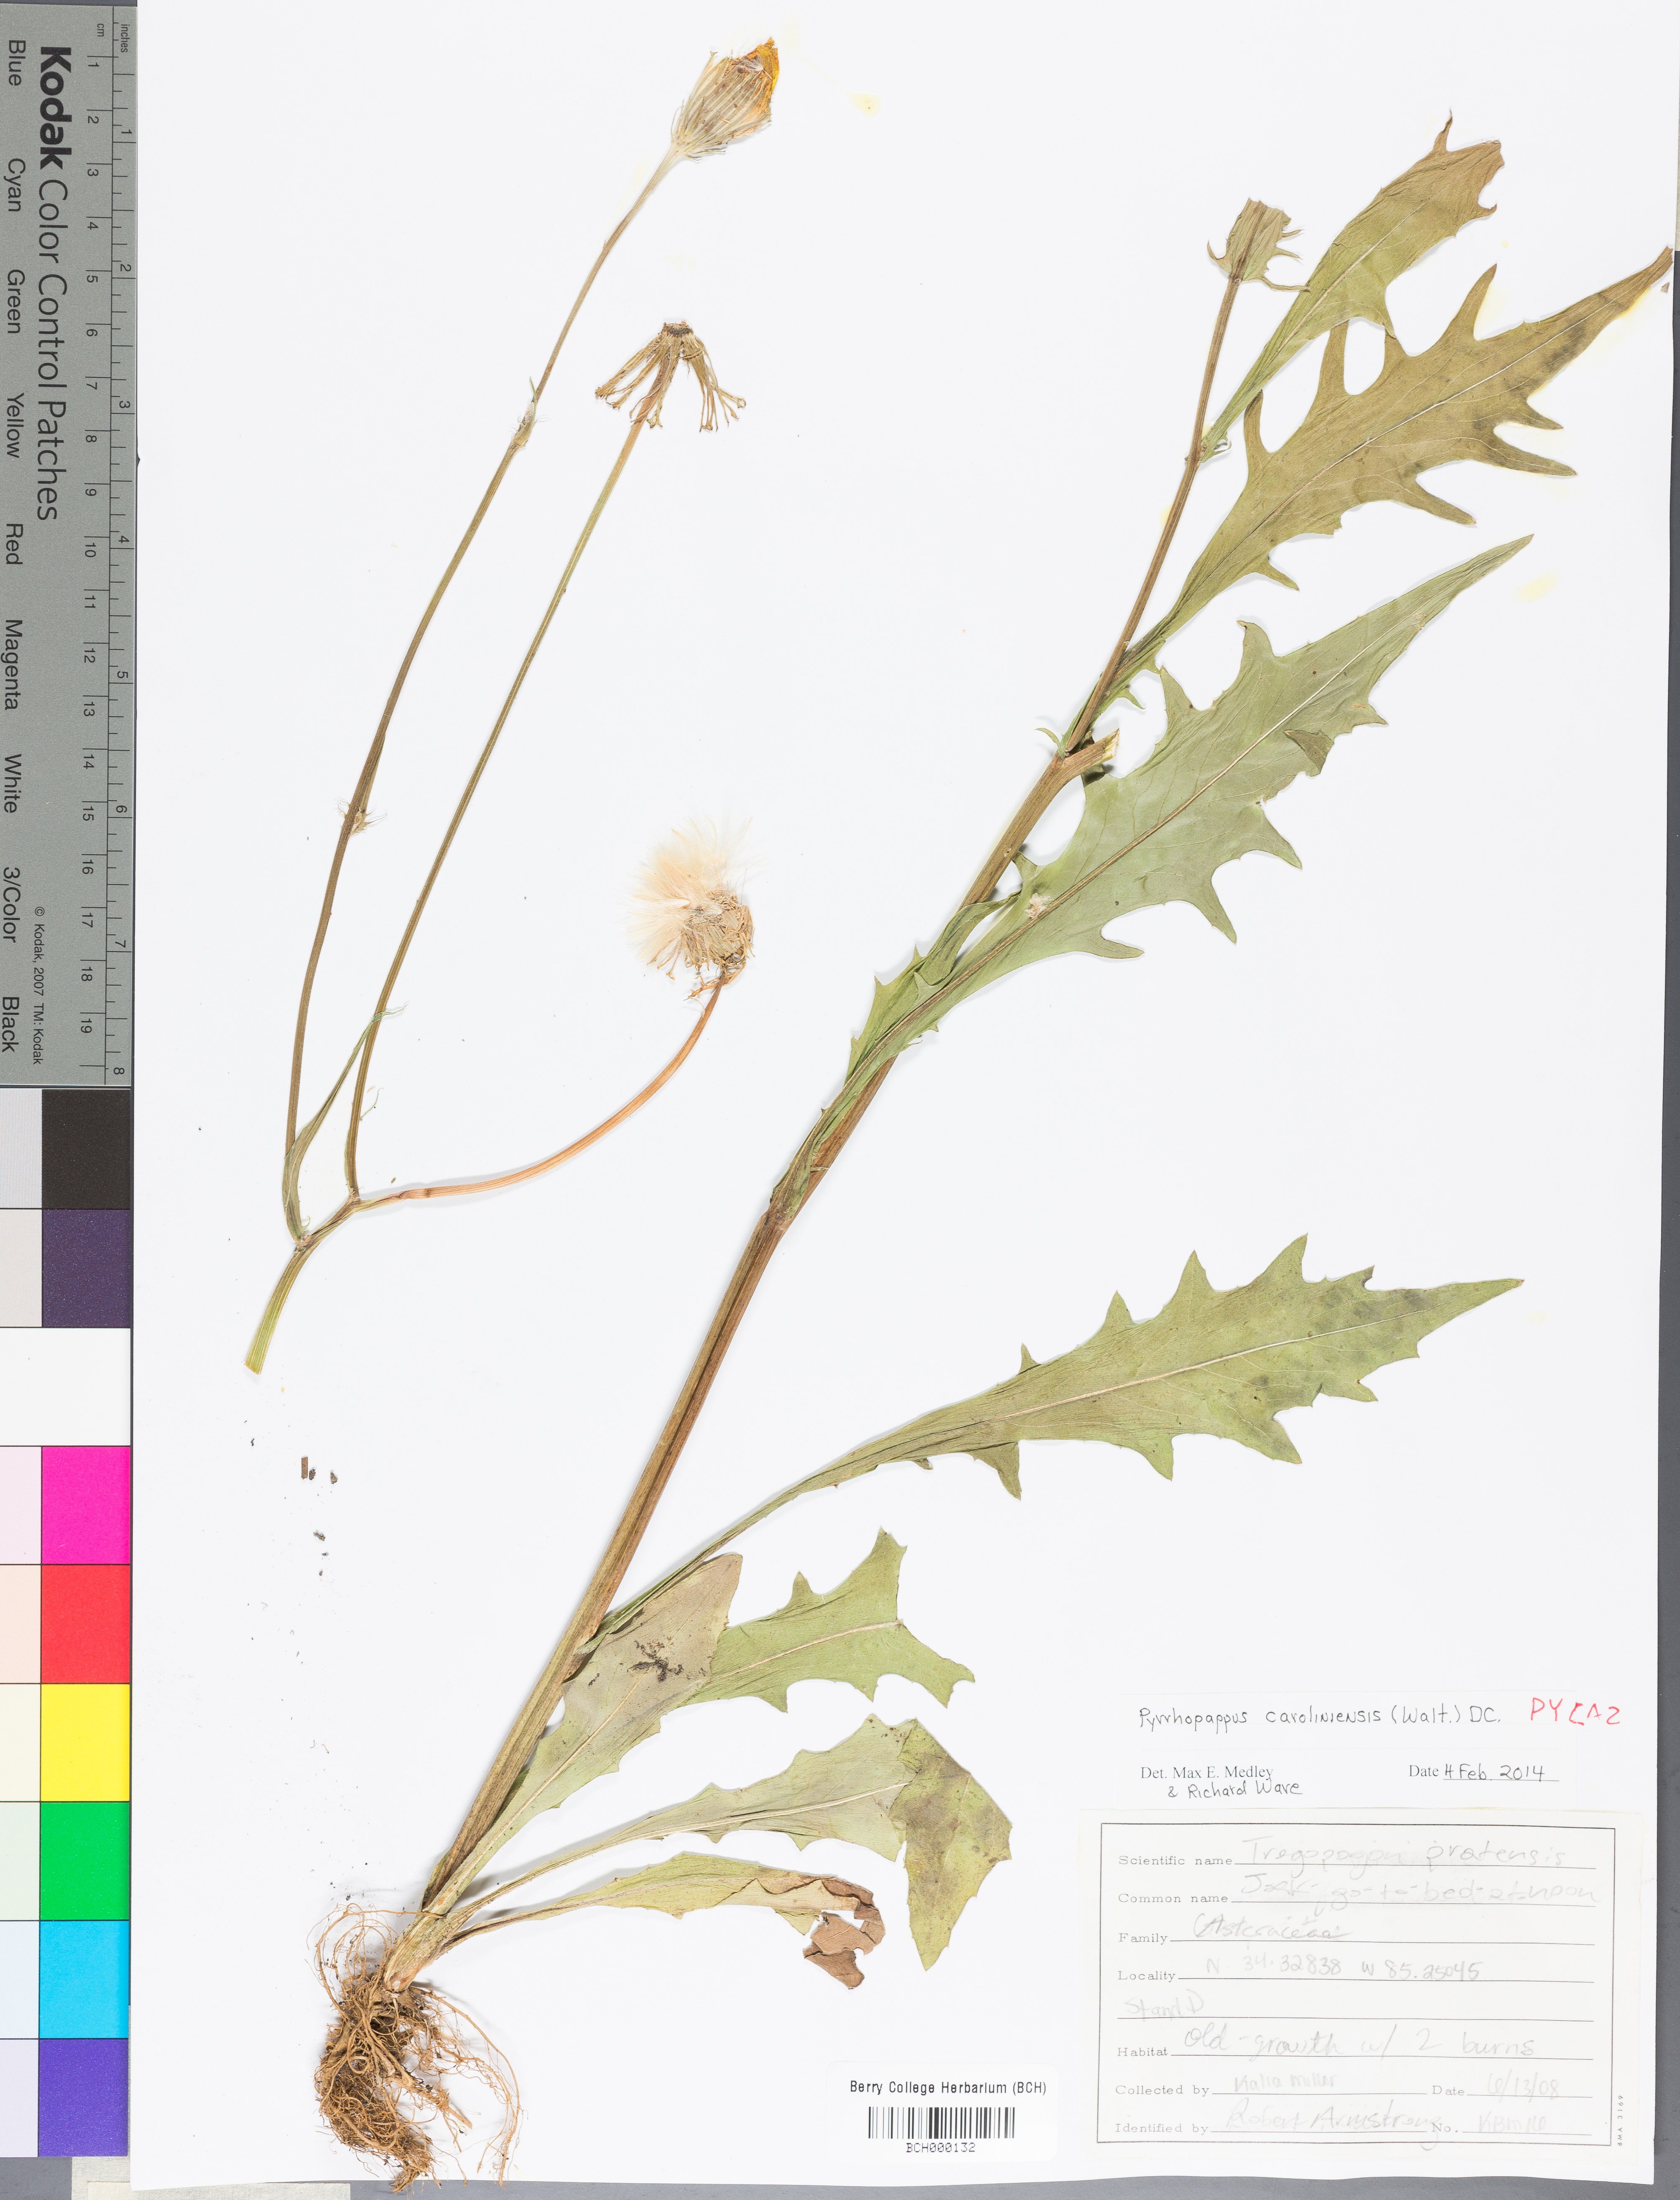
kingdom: Plantae
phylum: Tracheophyta
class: Magnoliopsida
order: Asterales
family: Asteraceae
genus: Pyrrhopappus
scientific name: Pyrrhopappus carolinianus
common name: Carolina desert-chicory
